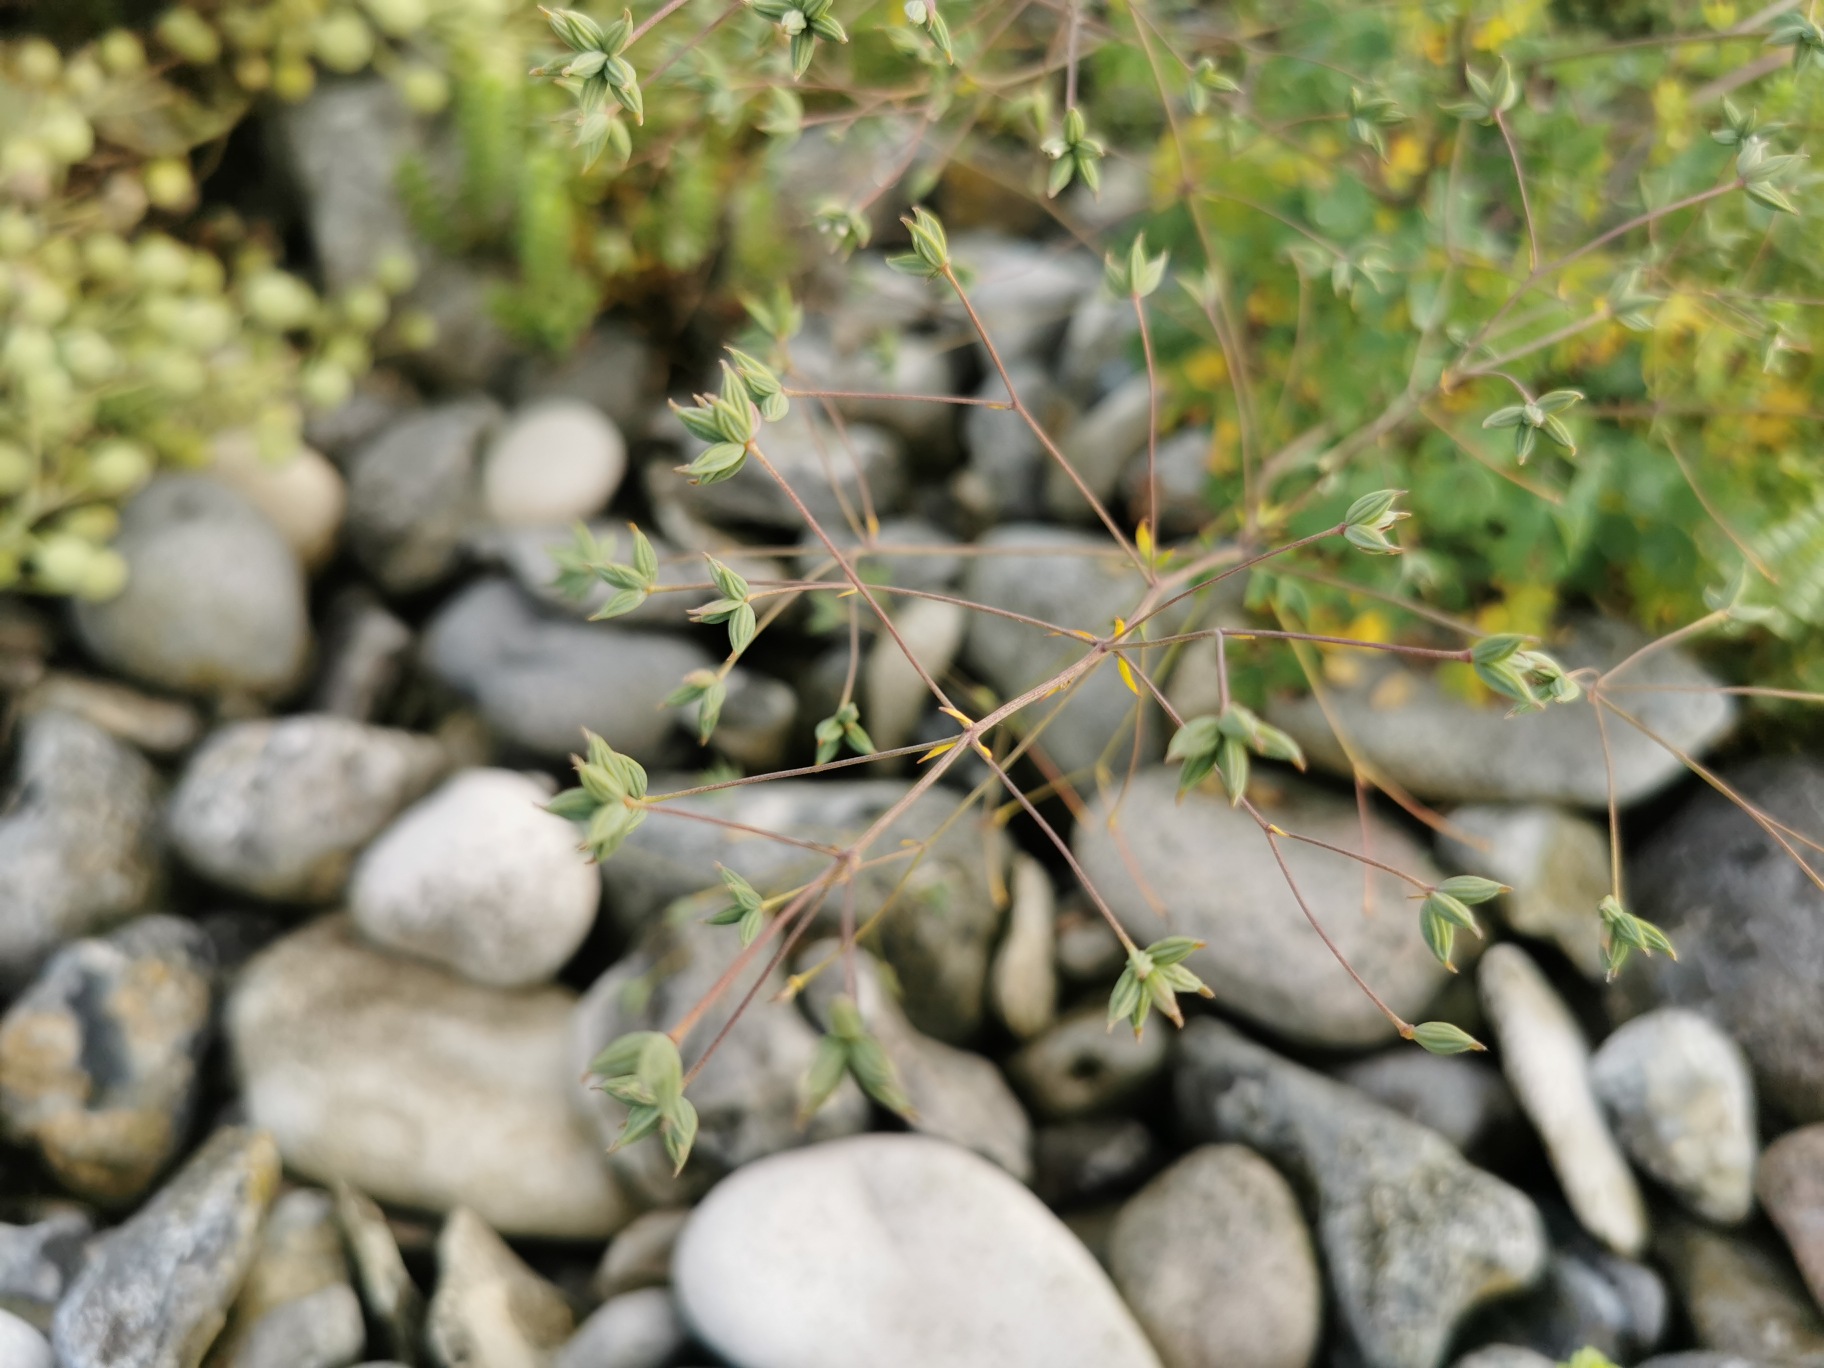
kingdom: Plantae
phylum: Tracheophyta
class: Magnoliopsida
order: Ranunculales
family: Ranunculaceae
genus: Thalictrum
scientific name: Thalictrum minus
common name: Liden frøstjerne
